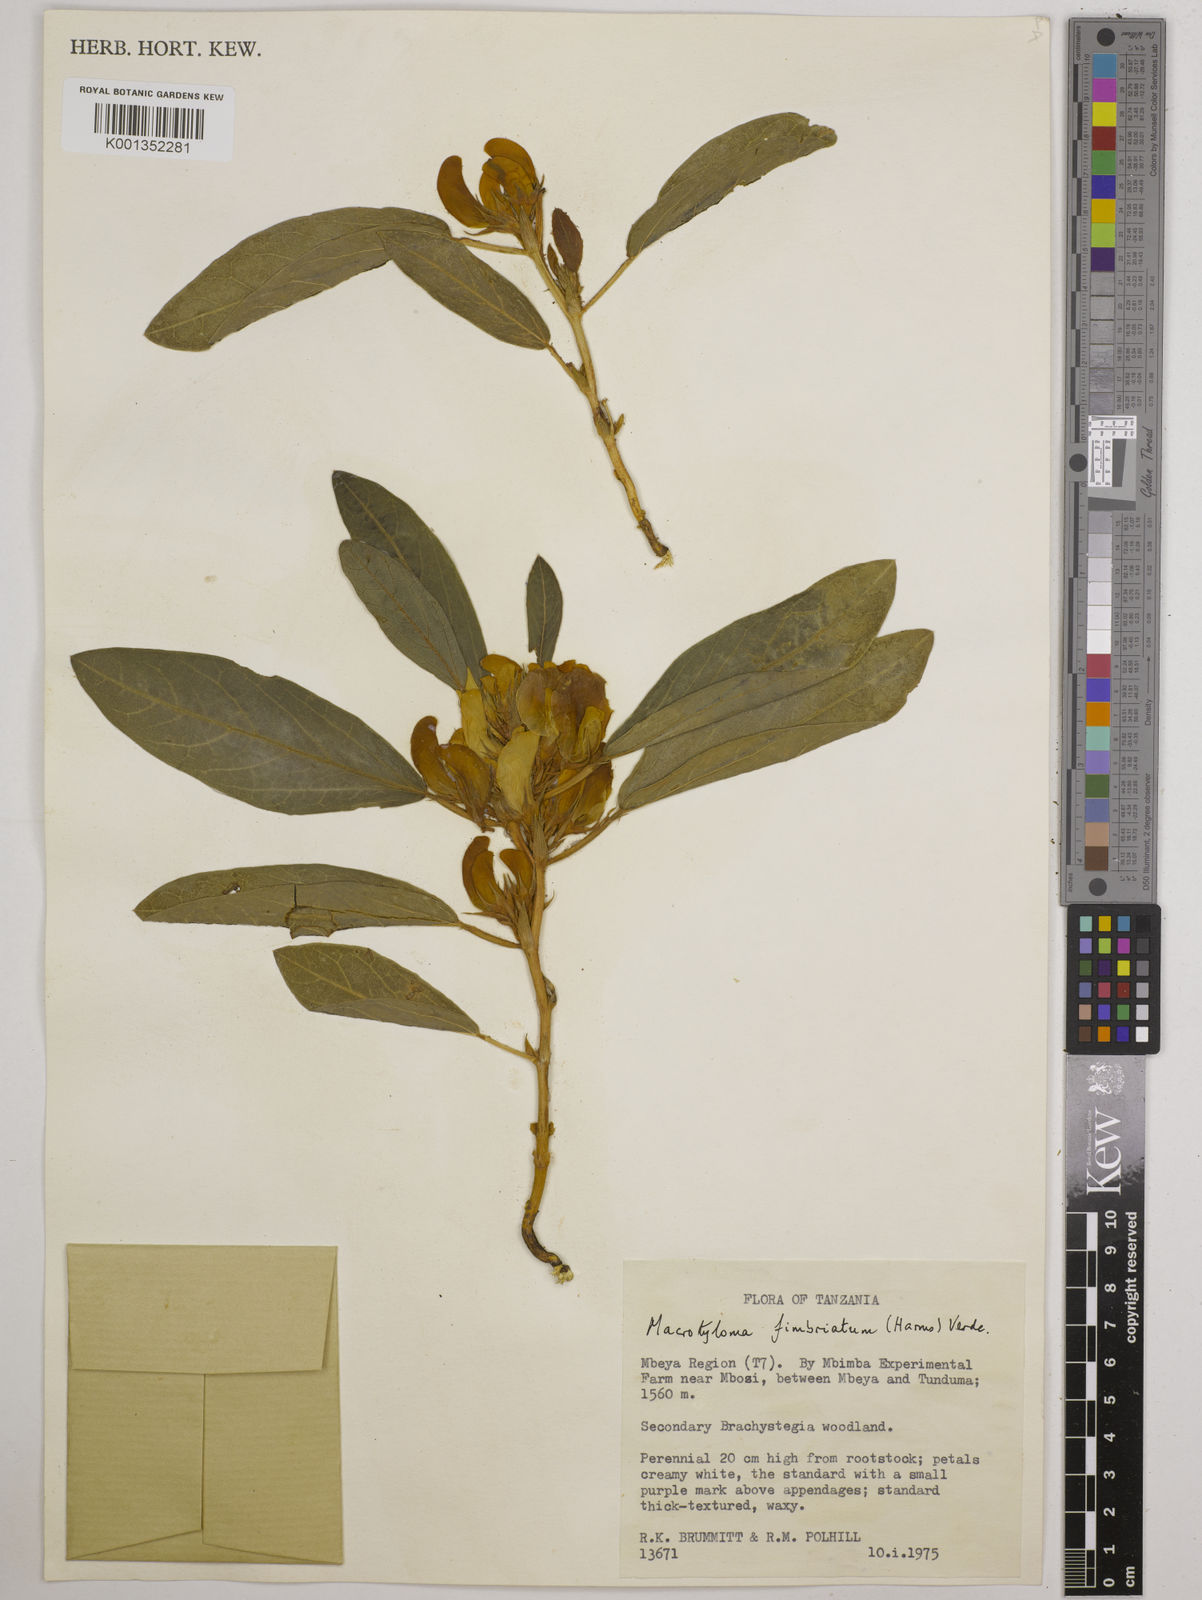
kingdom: Plantae
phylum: Tracheophyta
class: Magnoliopsida
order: Fabales
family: Fabaceae
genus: Macrotyloma
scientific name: Macrotyloma fimbriatum
